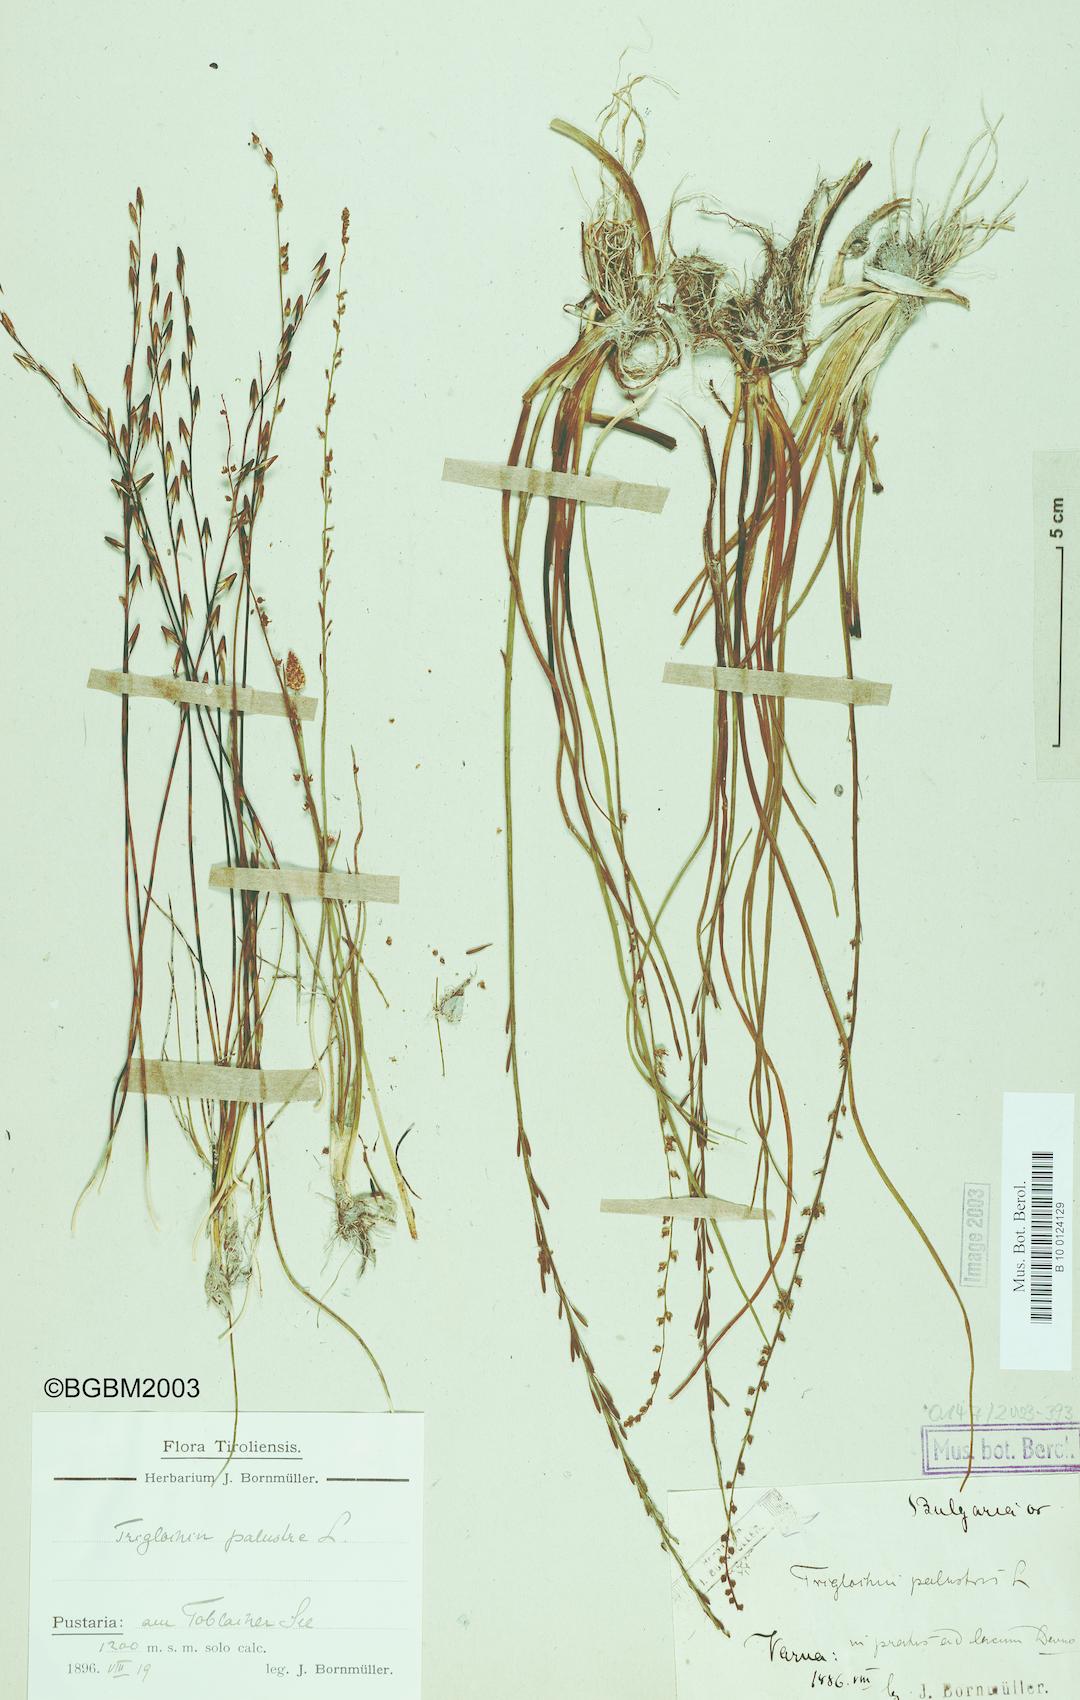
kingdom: Plantae
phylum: Tracheophyta
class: Liliopsida
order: Alismatales
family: Juncaginaceae
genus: Triglochin
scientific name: Triglochin palustris
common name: Marsh arrowgrass
